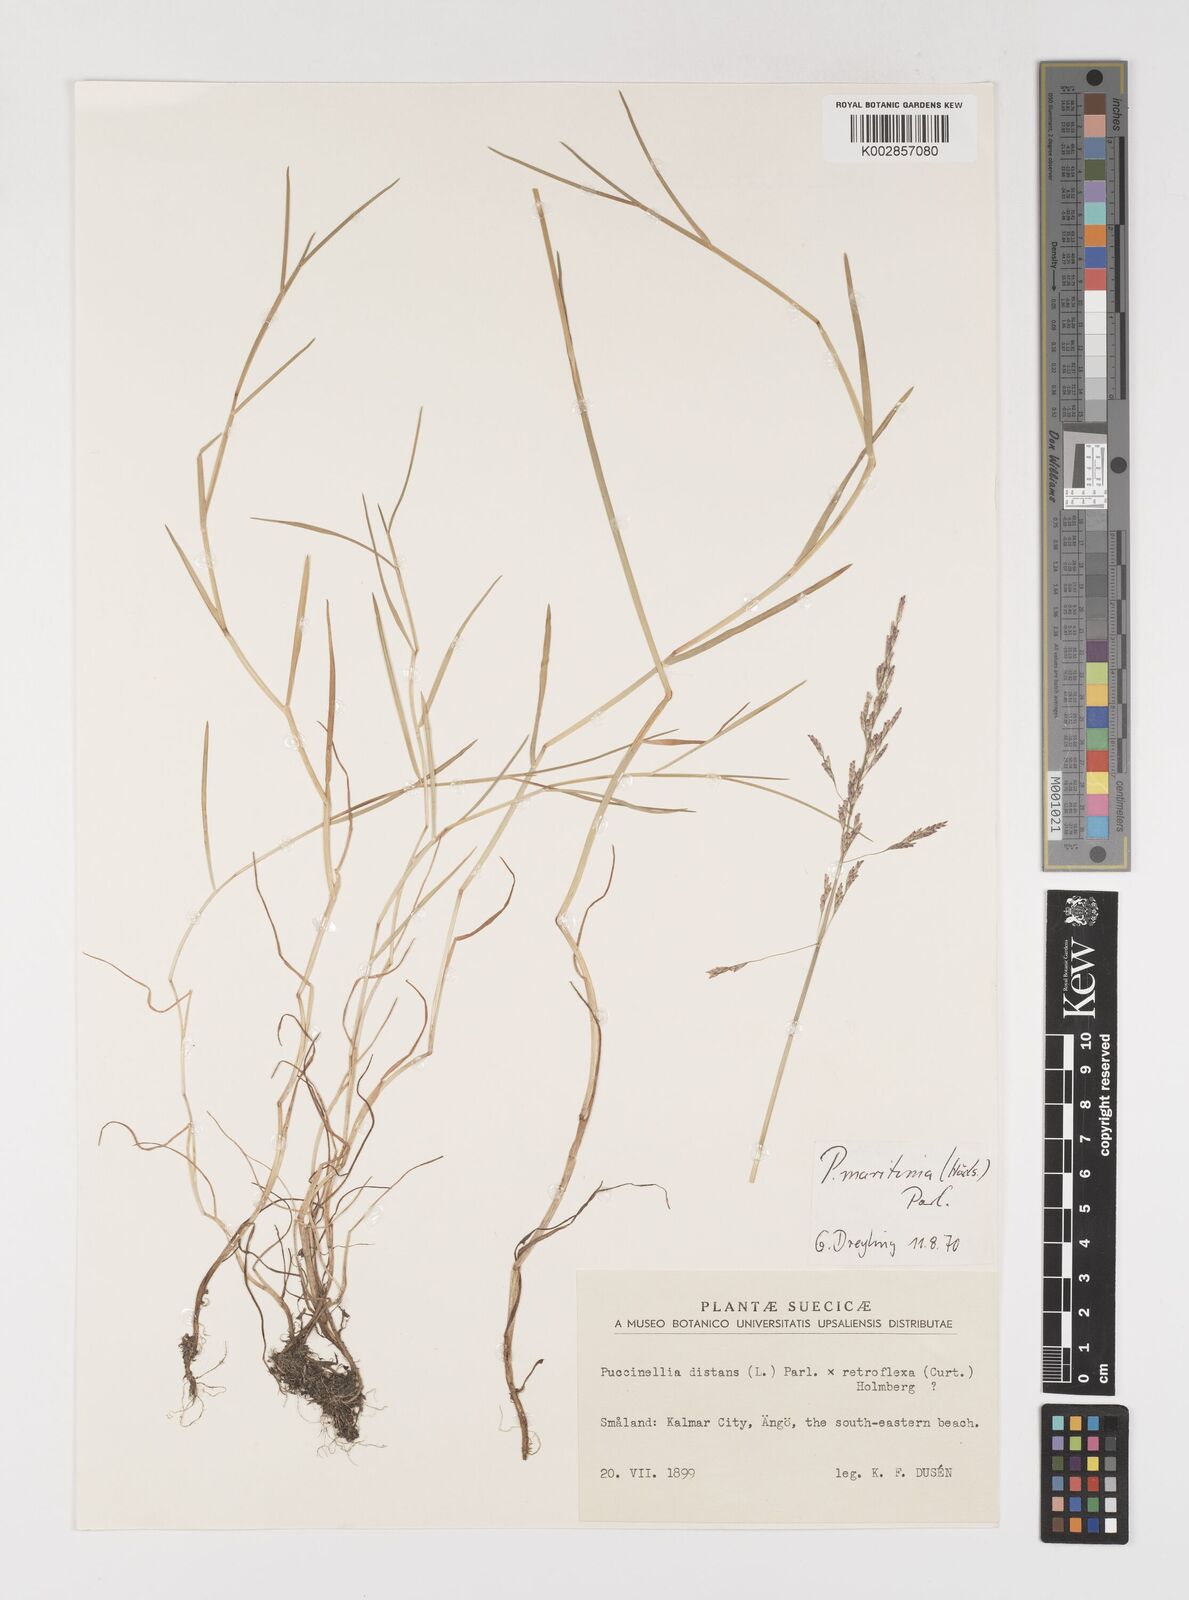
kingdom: Plantae
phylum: Tracheophyta
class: Liliopsida
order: Poales
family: Poaceae
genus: Puccinellia
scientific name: Puccinellia maritima
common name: Common saltmarsh grass
